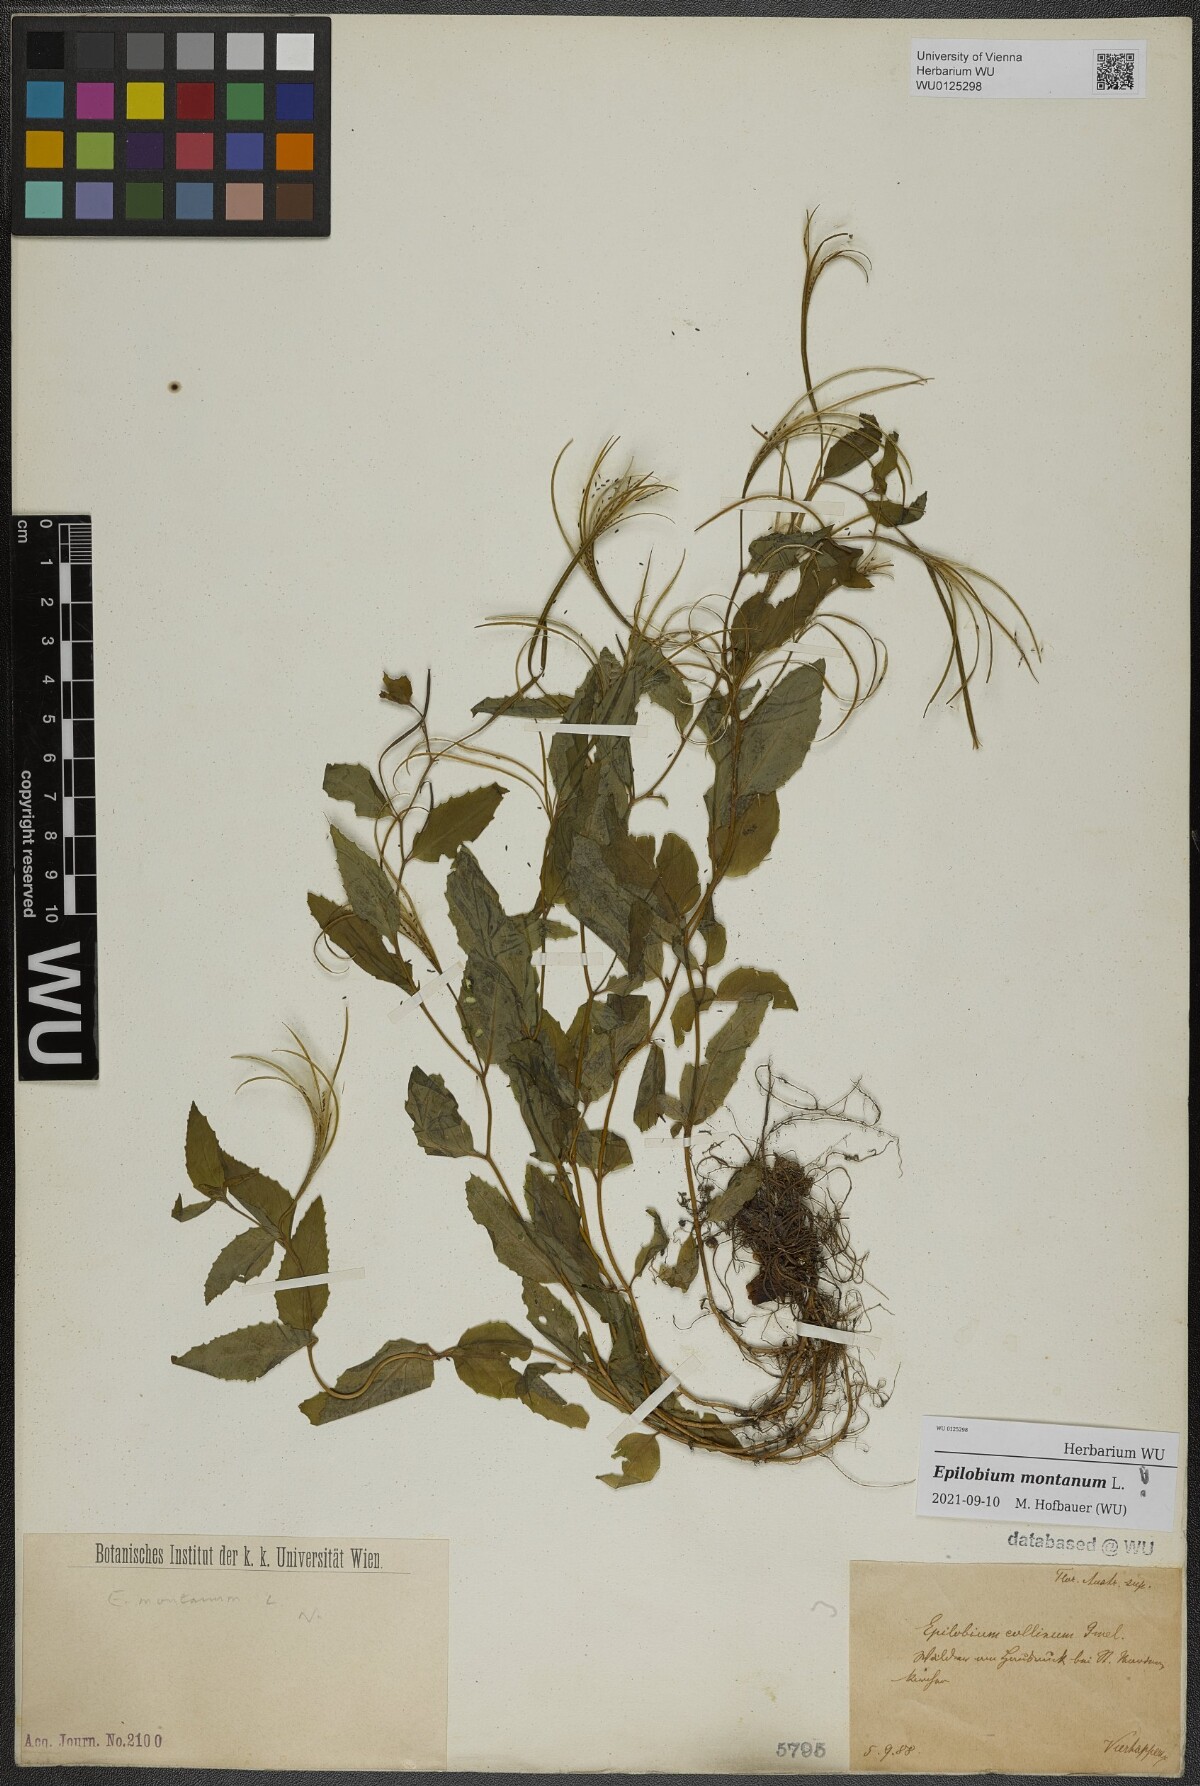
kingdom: Plantae
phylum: Tracheophyta
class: Magnoliopsida
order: Myrtales
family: Onagraceae
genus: Epilobium
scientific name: Epilobium montanum
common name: Broad-leaved willowherb
